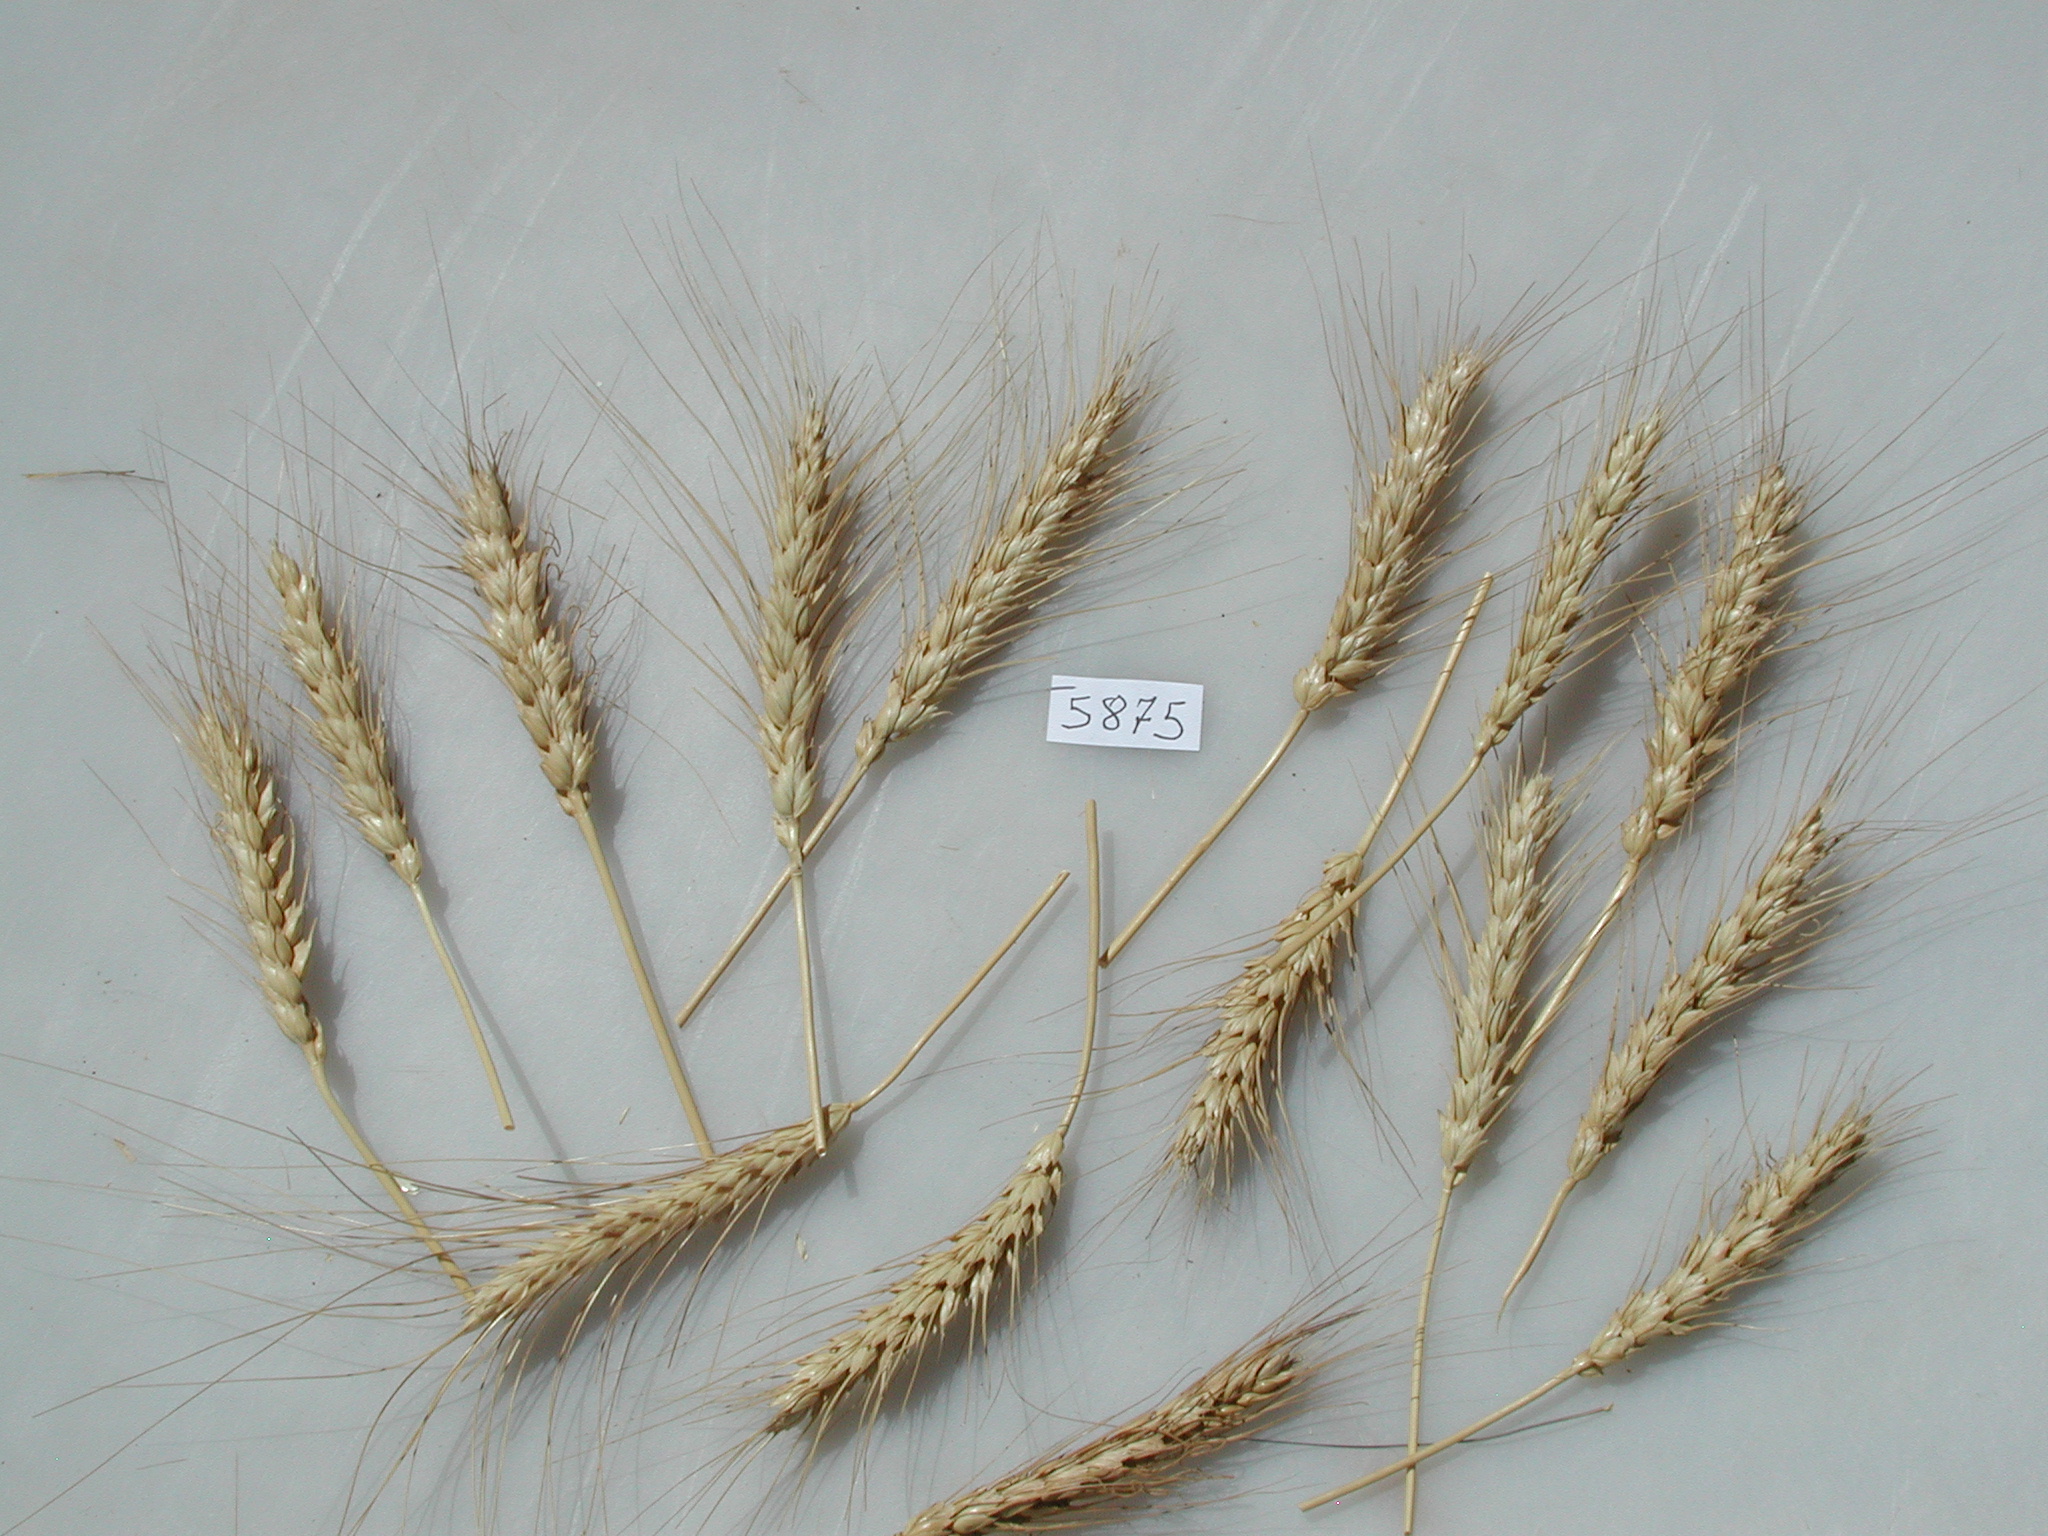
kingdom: Plantae
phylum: Tracheophyta
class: Liliopsida
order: Poales
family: Poaceae
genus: Triticum
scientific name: Triticum turgidum
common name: Wheat
